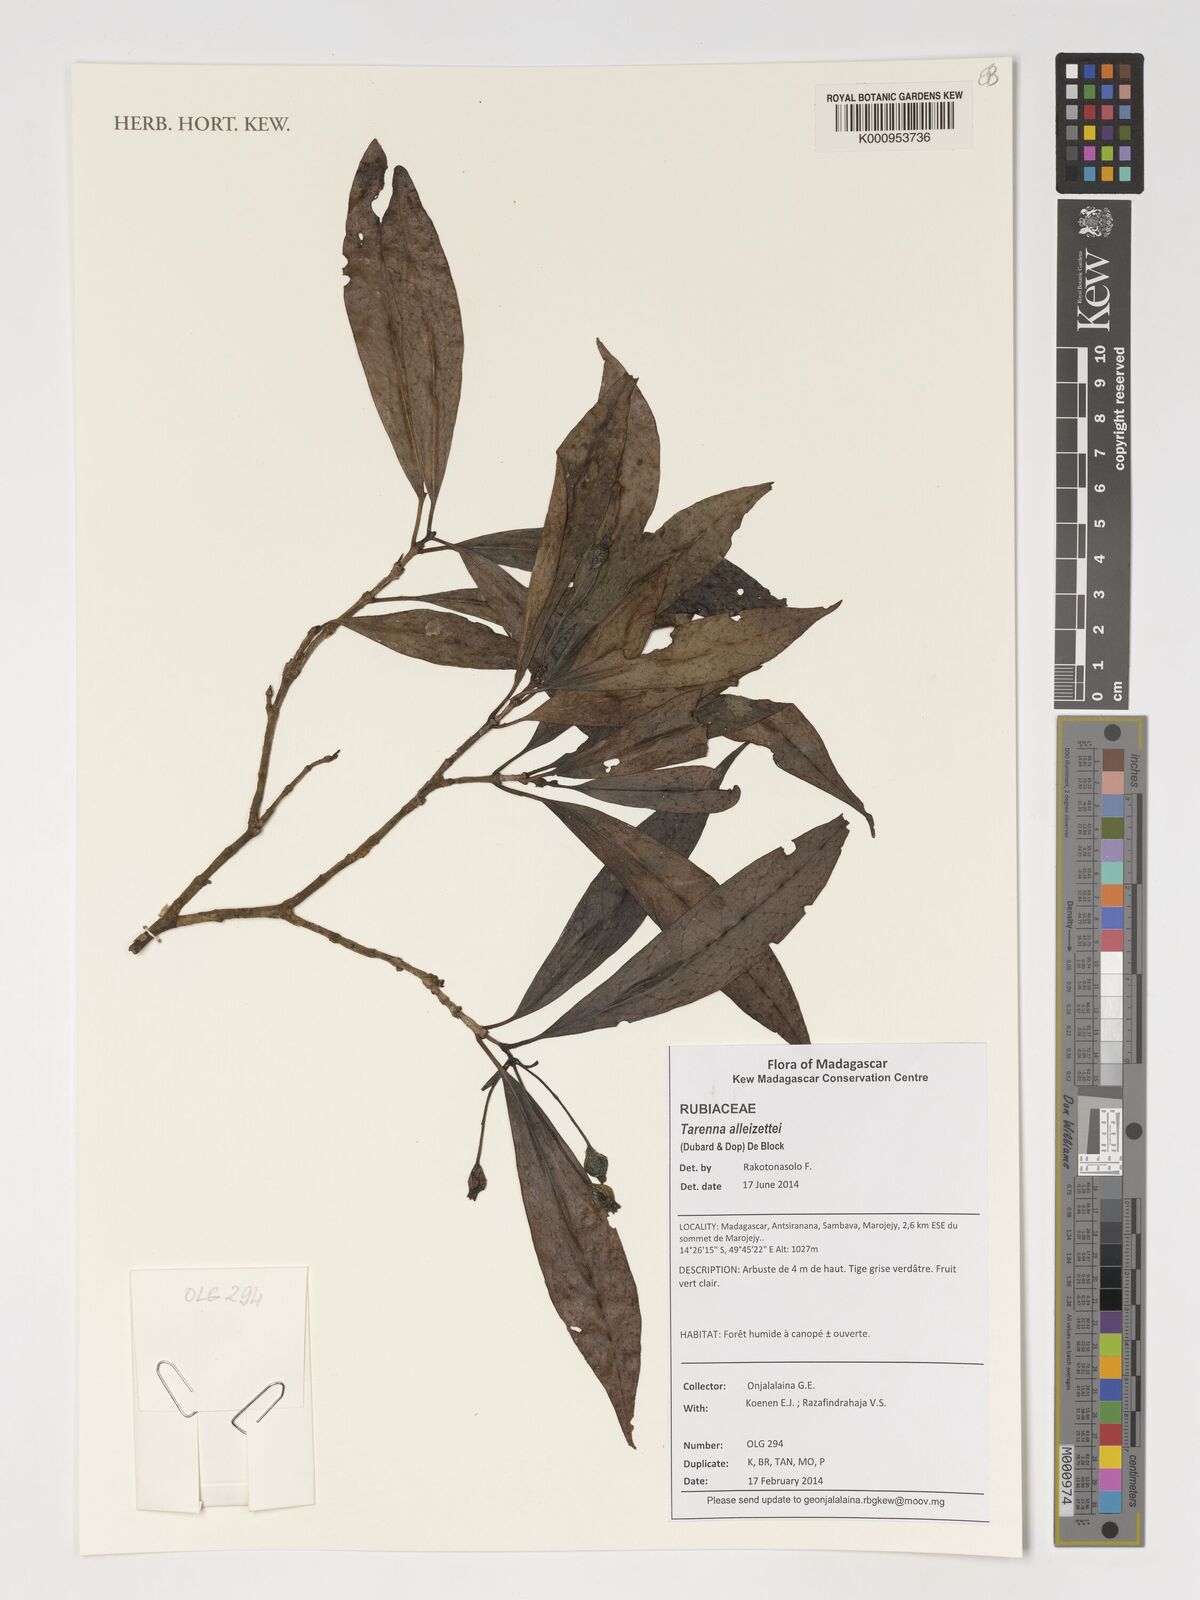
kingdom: Plantae
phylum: Tracheophyta
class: Magnoliopsida
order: Gentianales
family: Rubiaceae
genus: Tarenna
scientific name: Tarenna alleizettei
